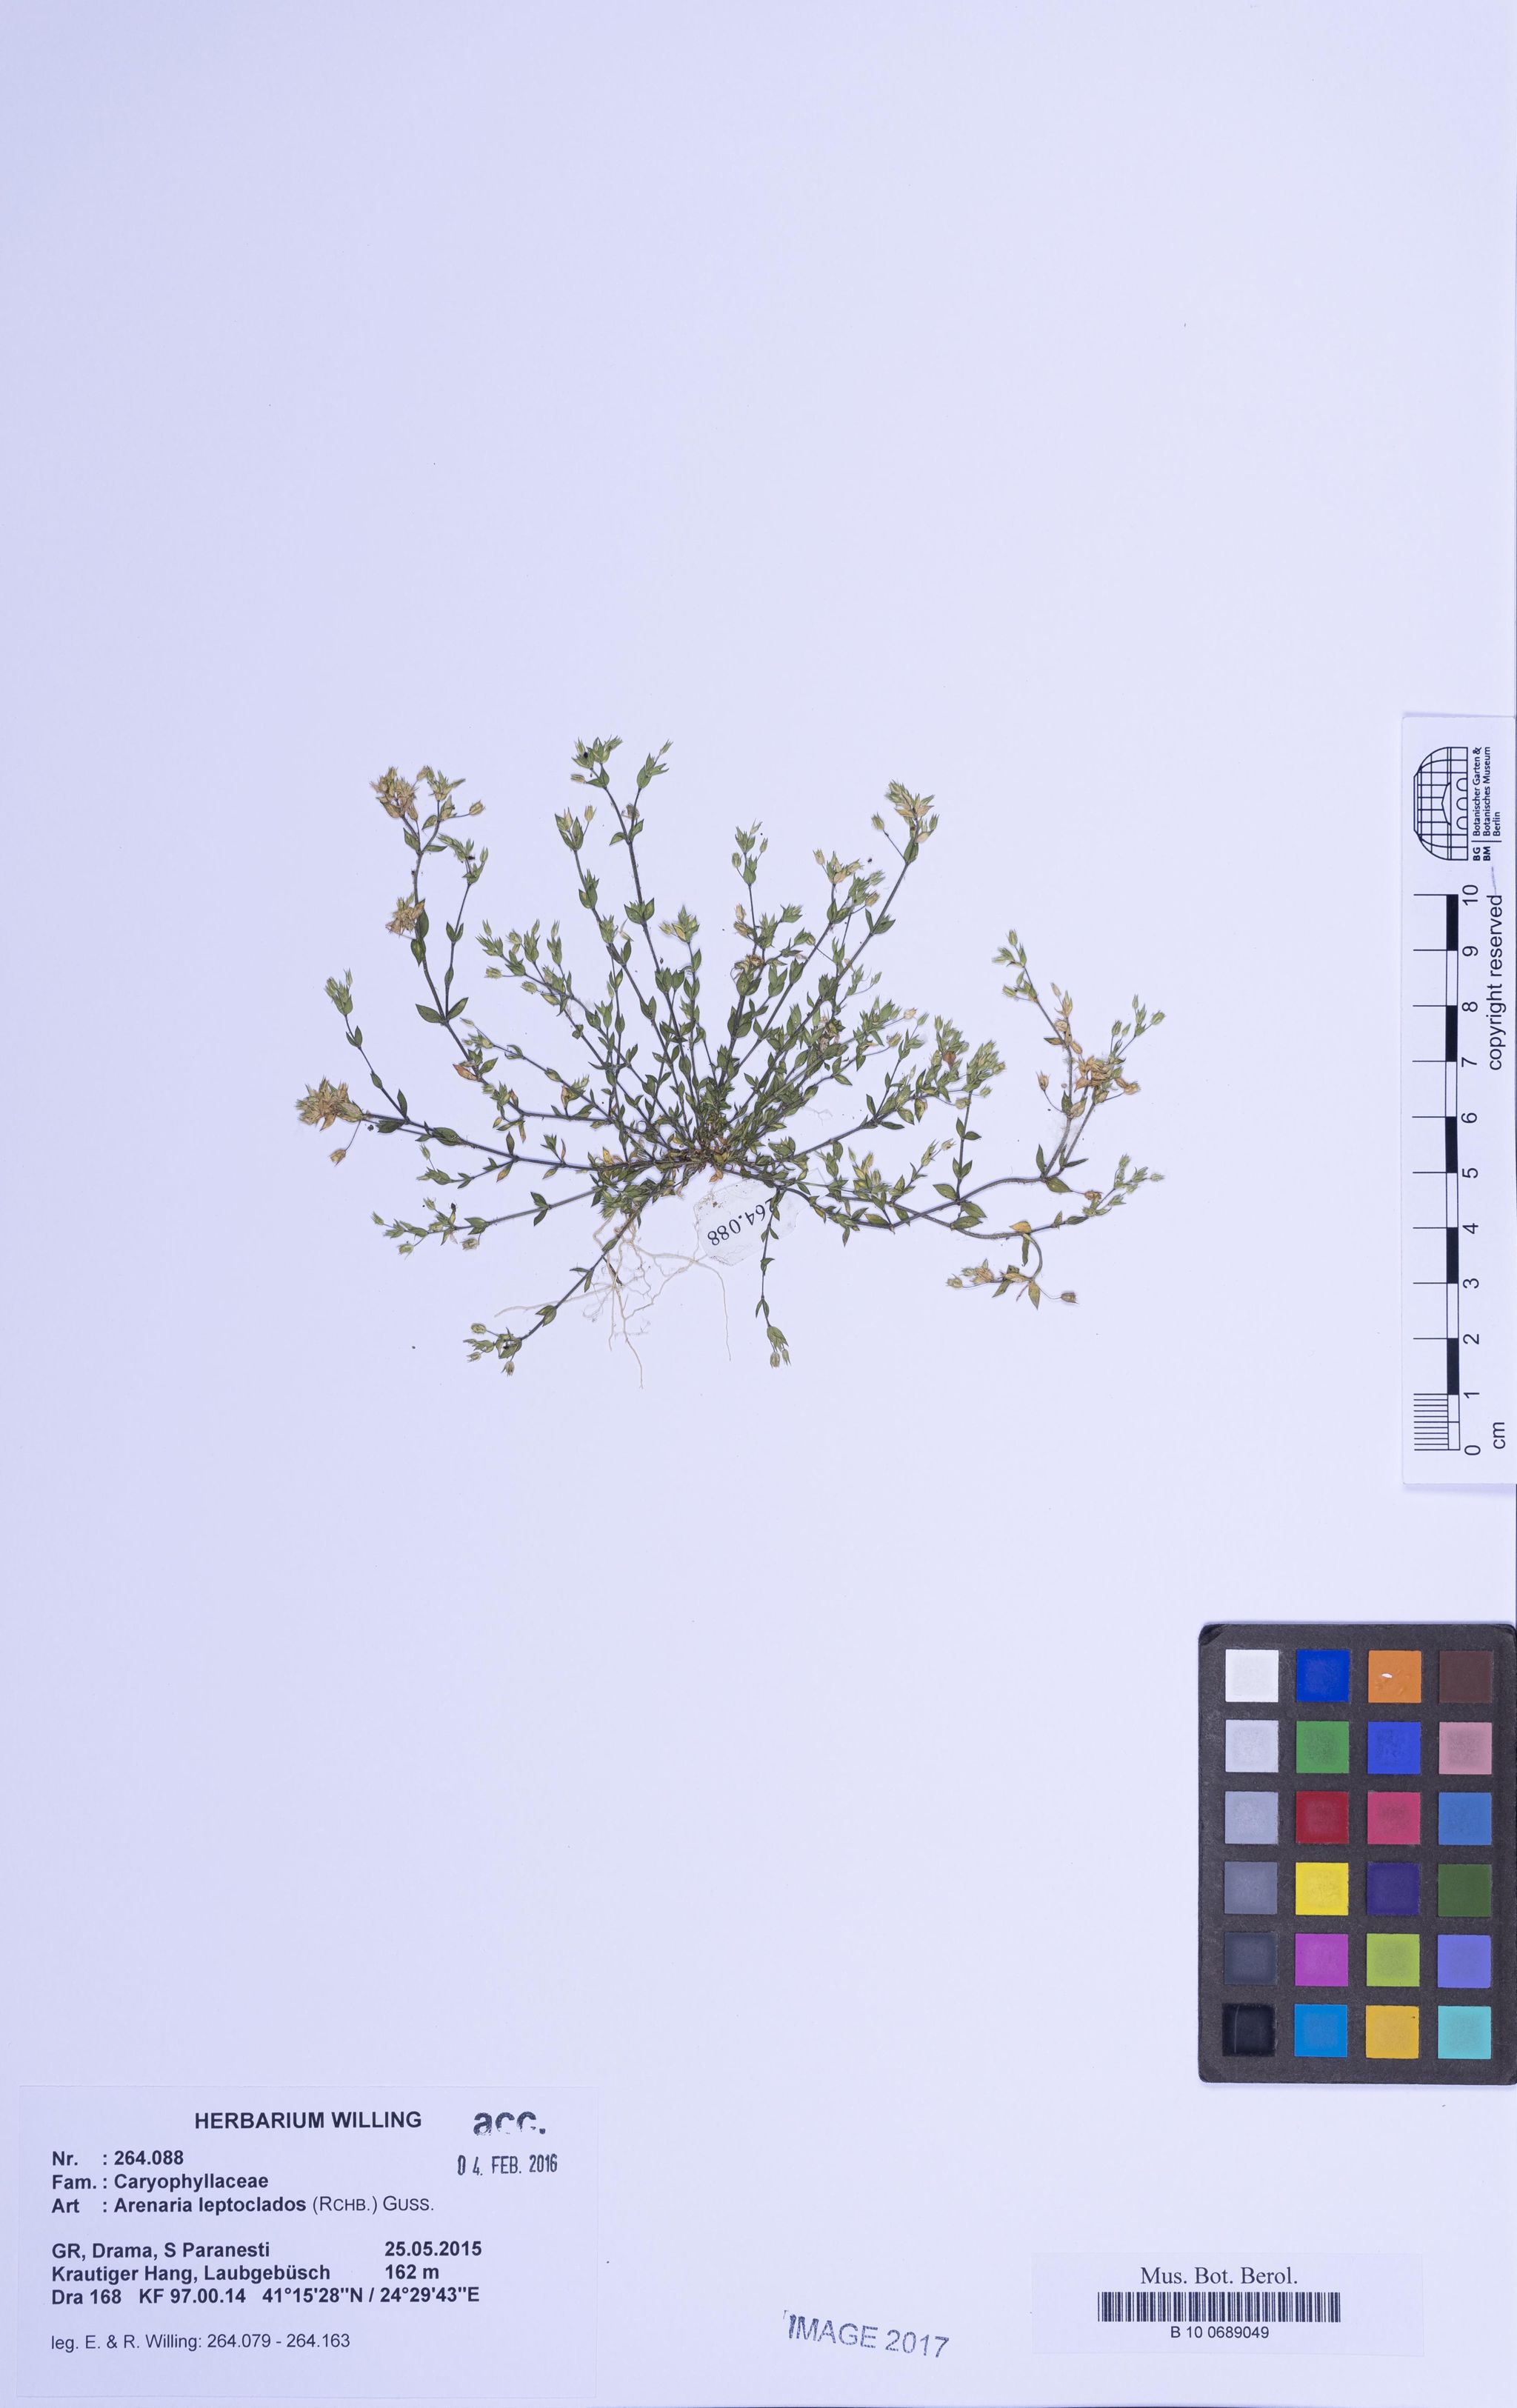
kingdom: Plantae
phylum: Tracheophyta
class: Magnoliopsida
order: Caryophyllales
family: Caryophyllaceae
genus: Arenaria
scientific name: Arenaria leptoclados
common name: Thyme-leaved sandwort
